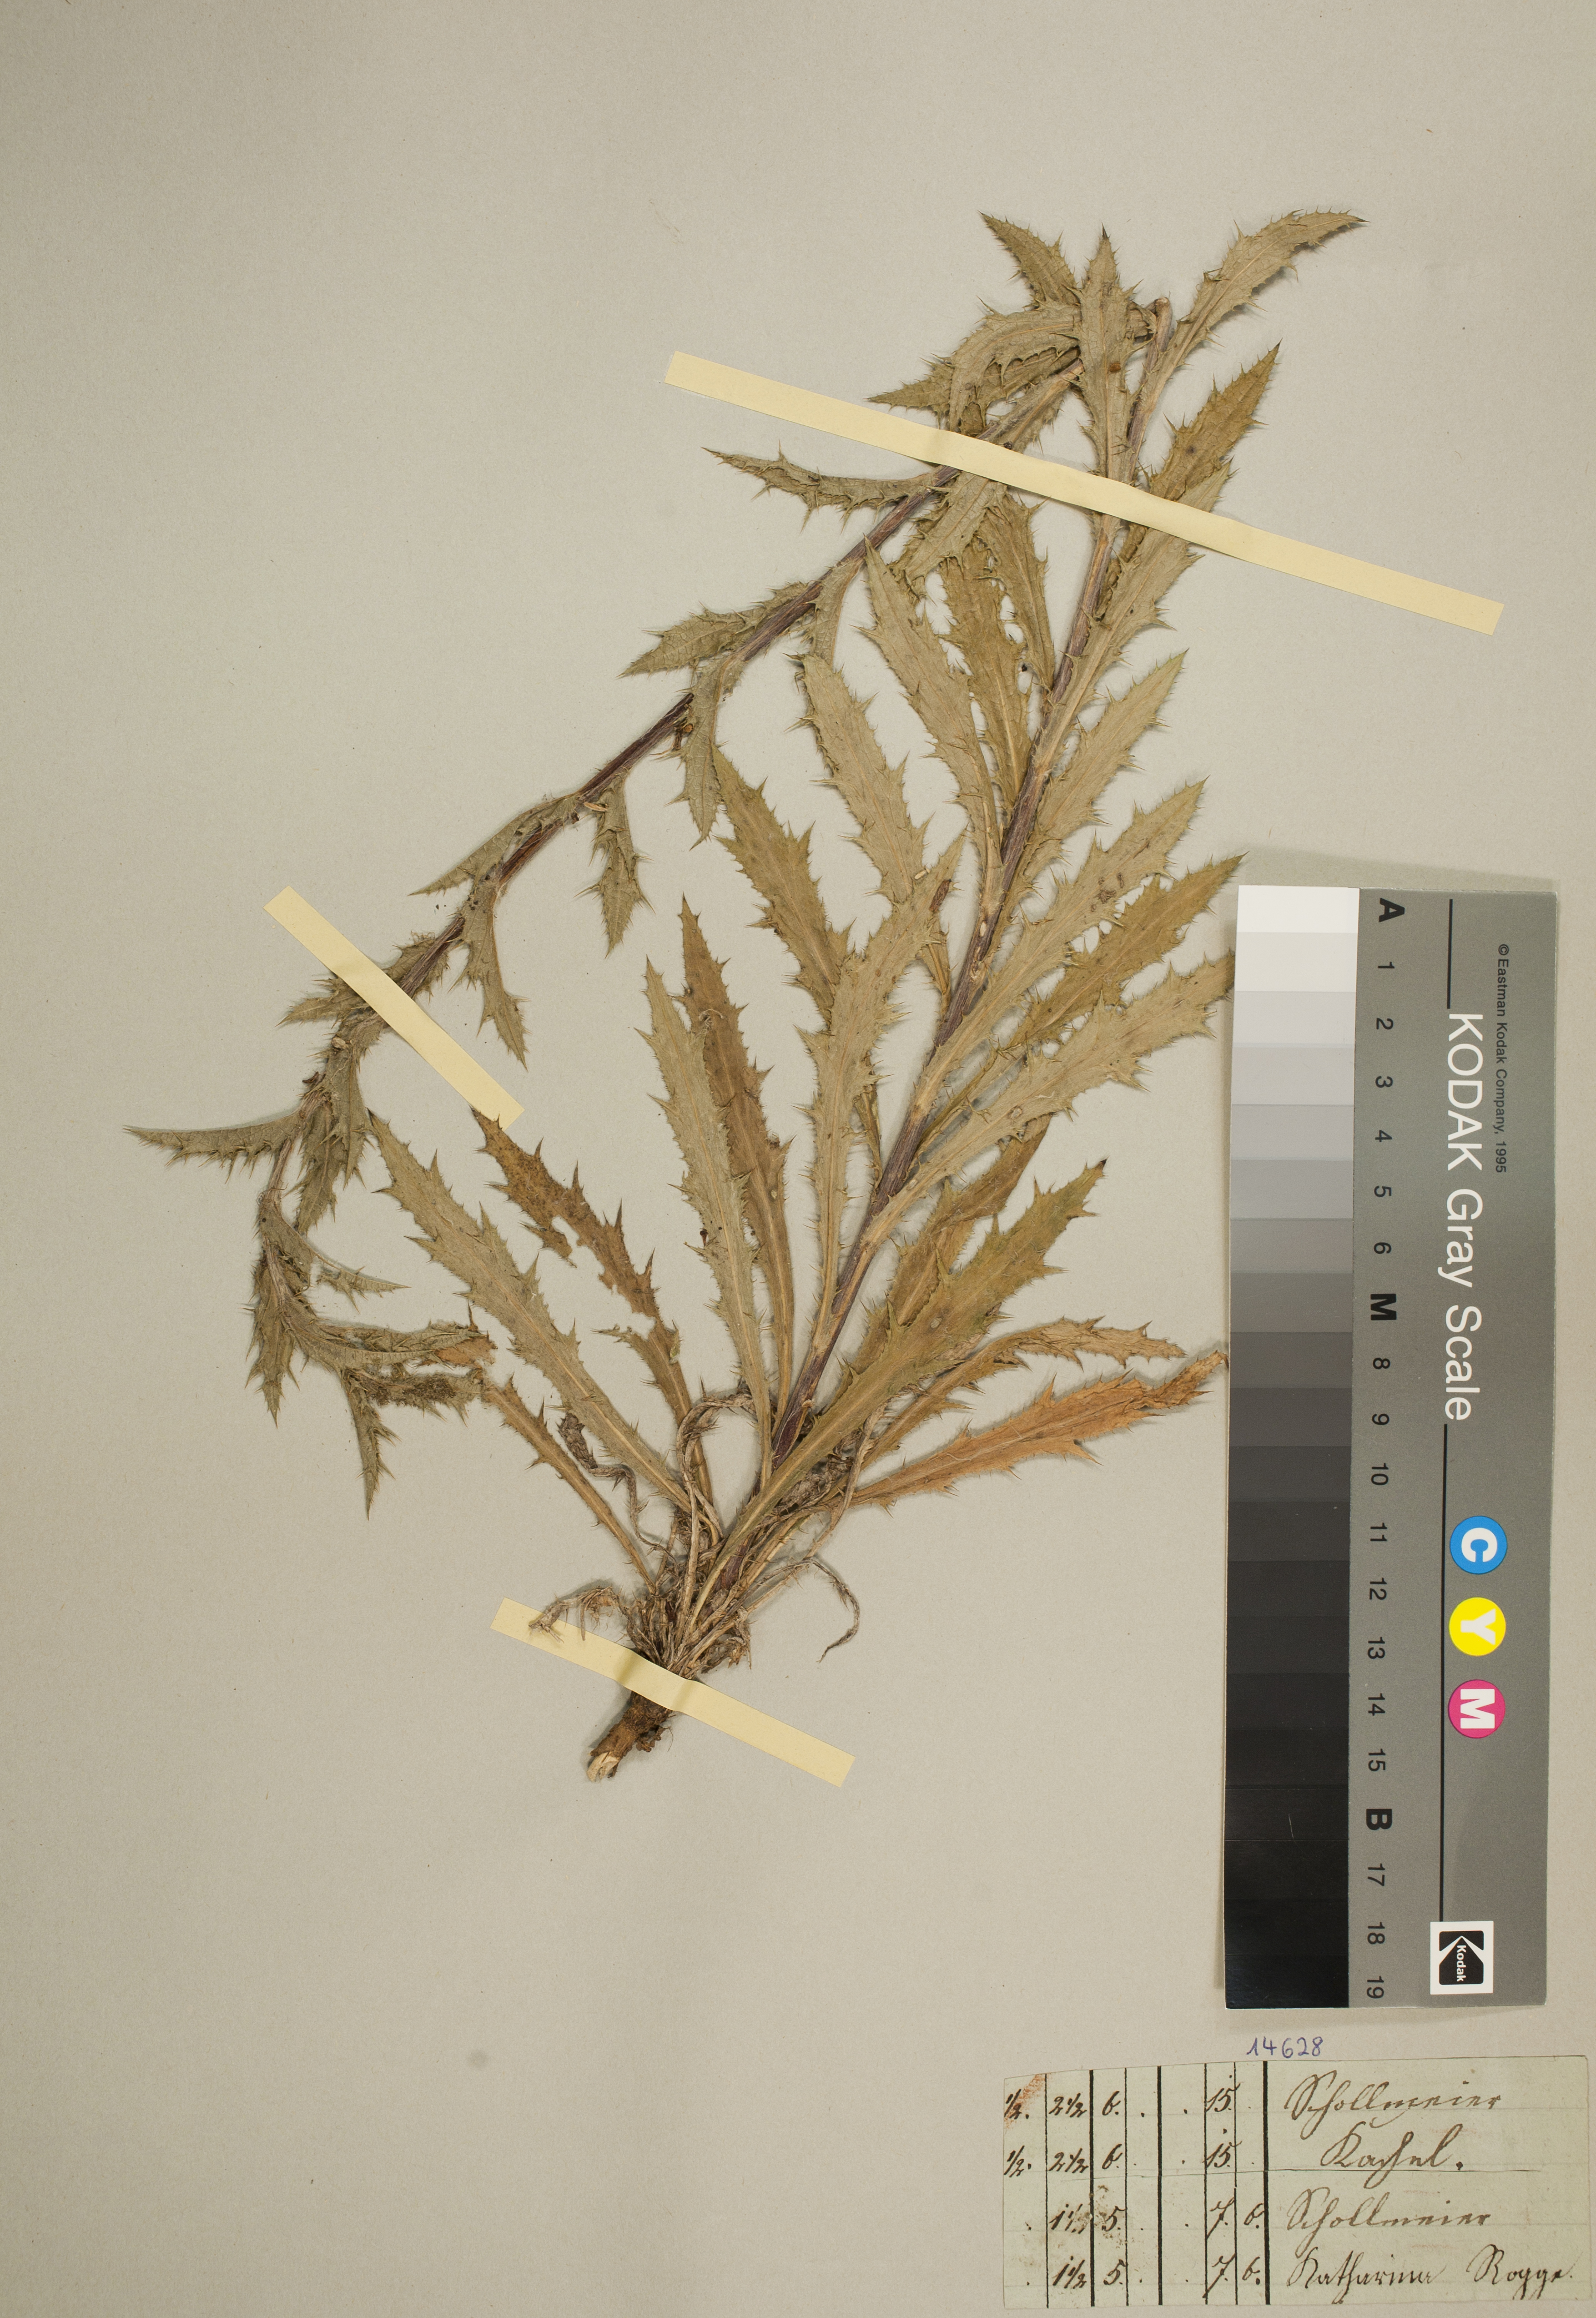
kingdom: Plantae
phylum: Tracheophyta
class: Magnoliopsida
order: Asterales
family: Asteraceae
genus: Carlina
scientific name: Carlina vulgaris
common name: Carline thistle
